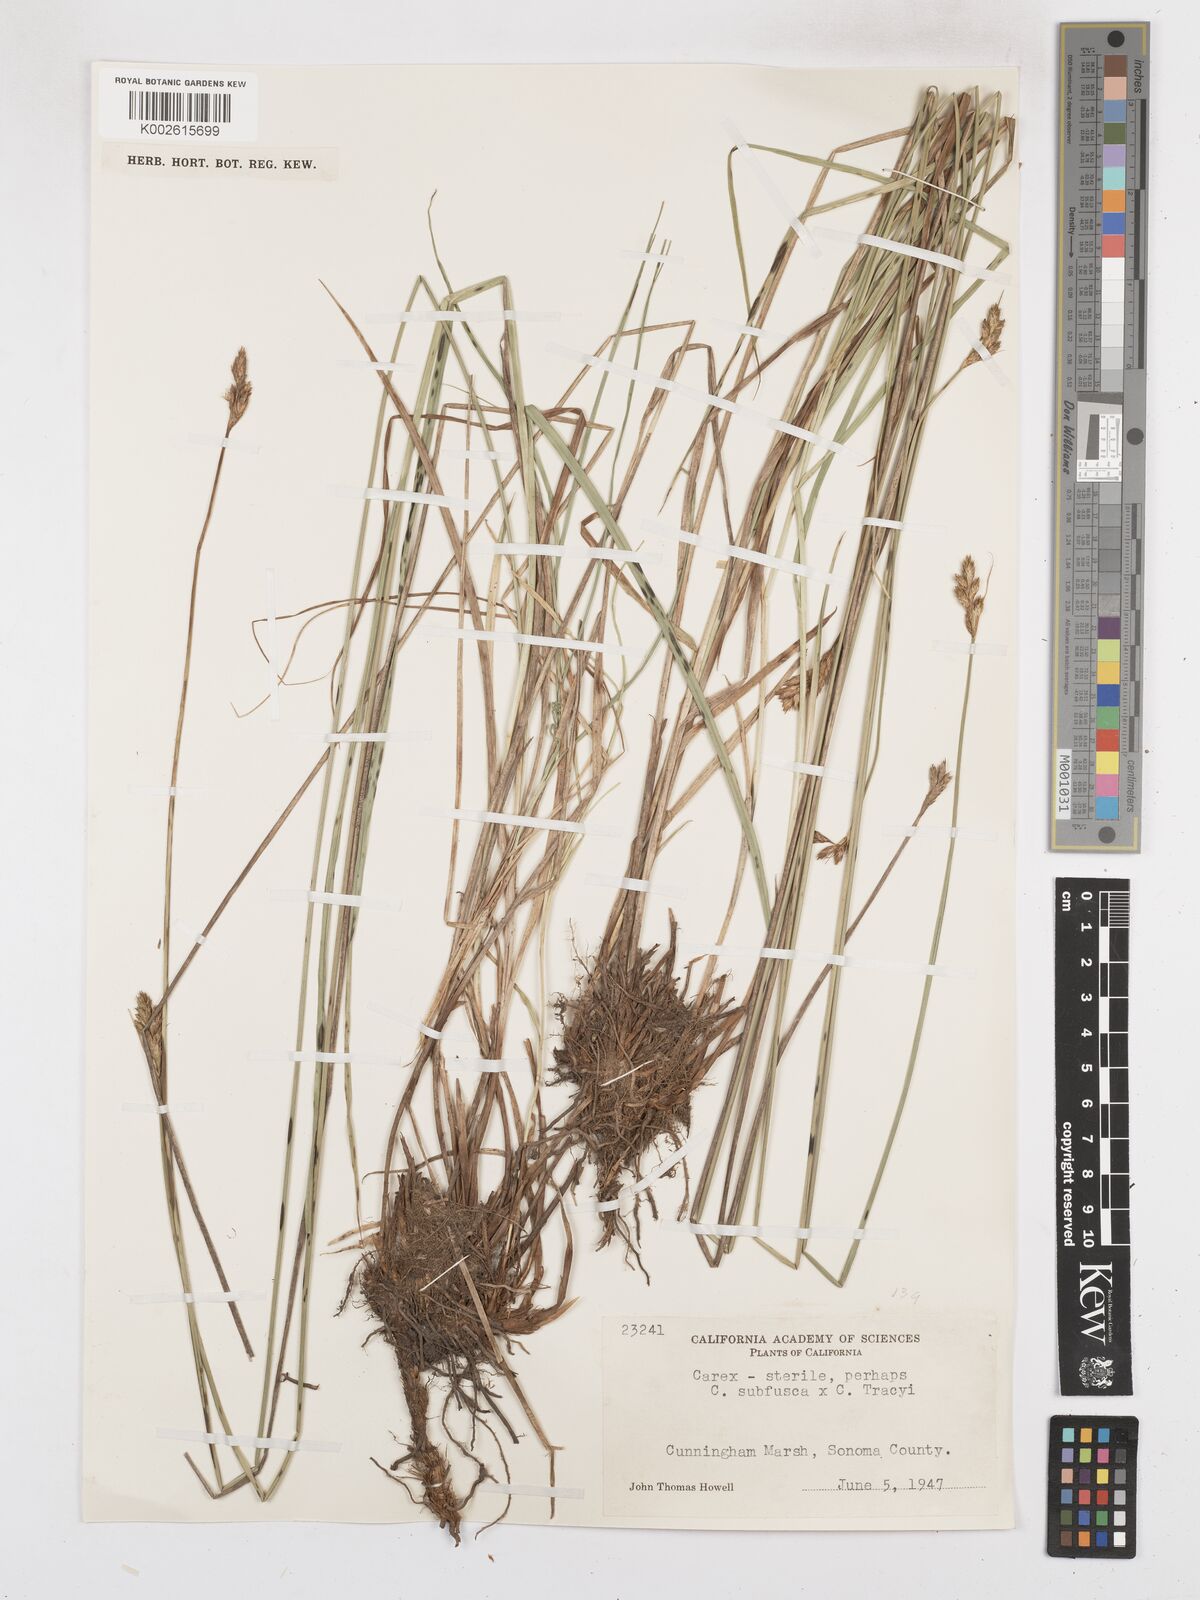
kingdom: Plantae
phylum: Tracheophyta
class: Liliopsida
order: Poales
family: Cyperaceae
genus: Carex
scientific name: Carex pachystachya
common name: Chamisso's sedge
